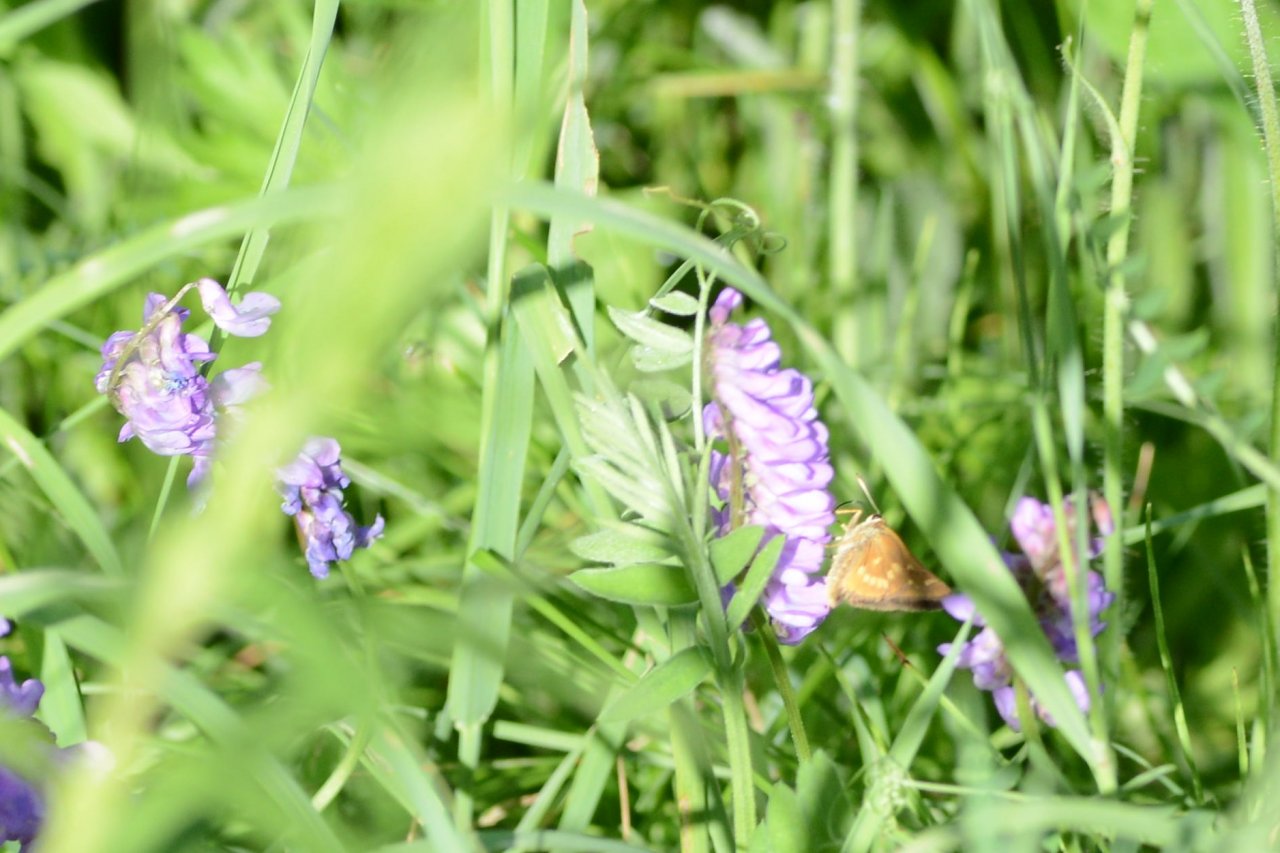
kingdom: Animalia
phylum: Arthropoda
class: Insecta
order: Lepidoptera
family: Hesperiidae
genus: Polites
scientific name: Polites
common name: Long Dash Skipper
